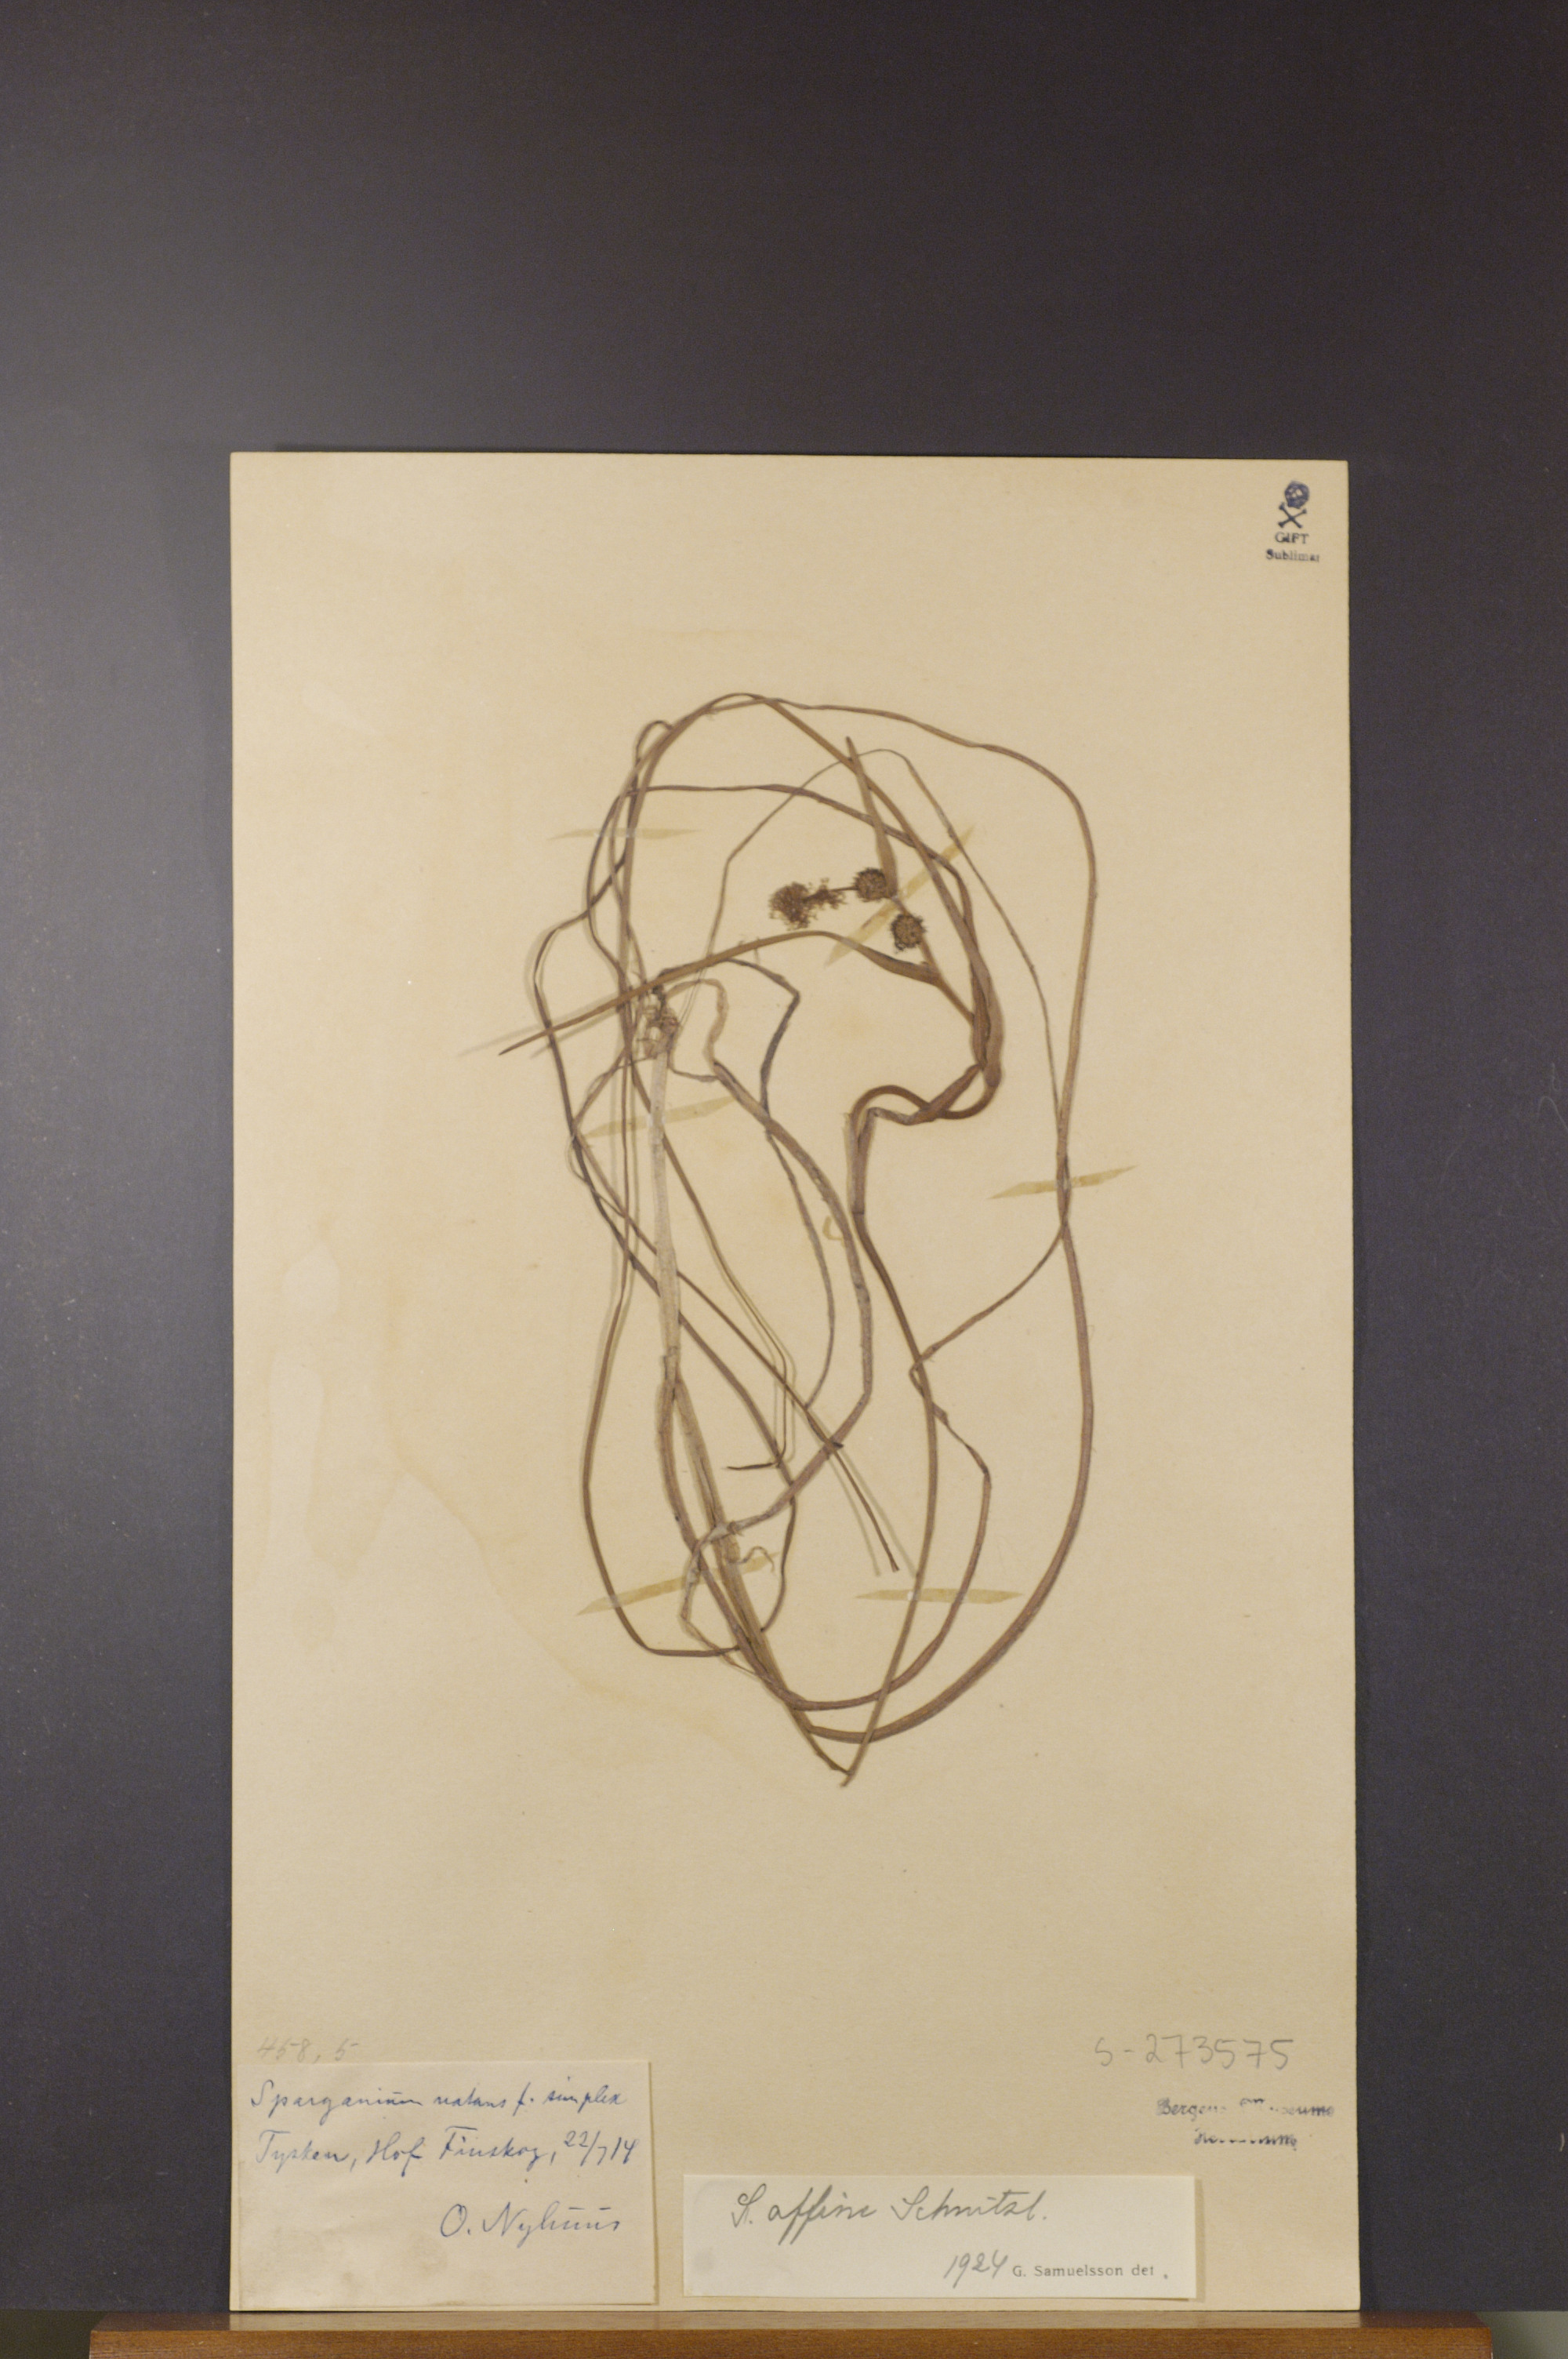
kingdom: Plantae
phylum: Tracheophyta
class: Liliopsida
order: Poales
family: Typhaceae
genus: Sparganium
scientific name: Sparganium angustifolium
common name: Floating bur-reed
